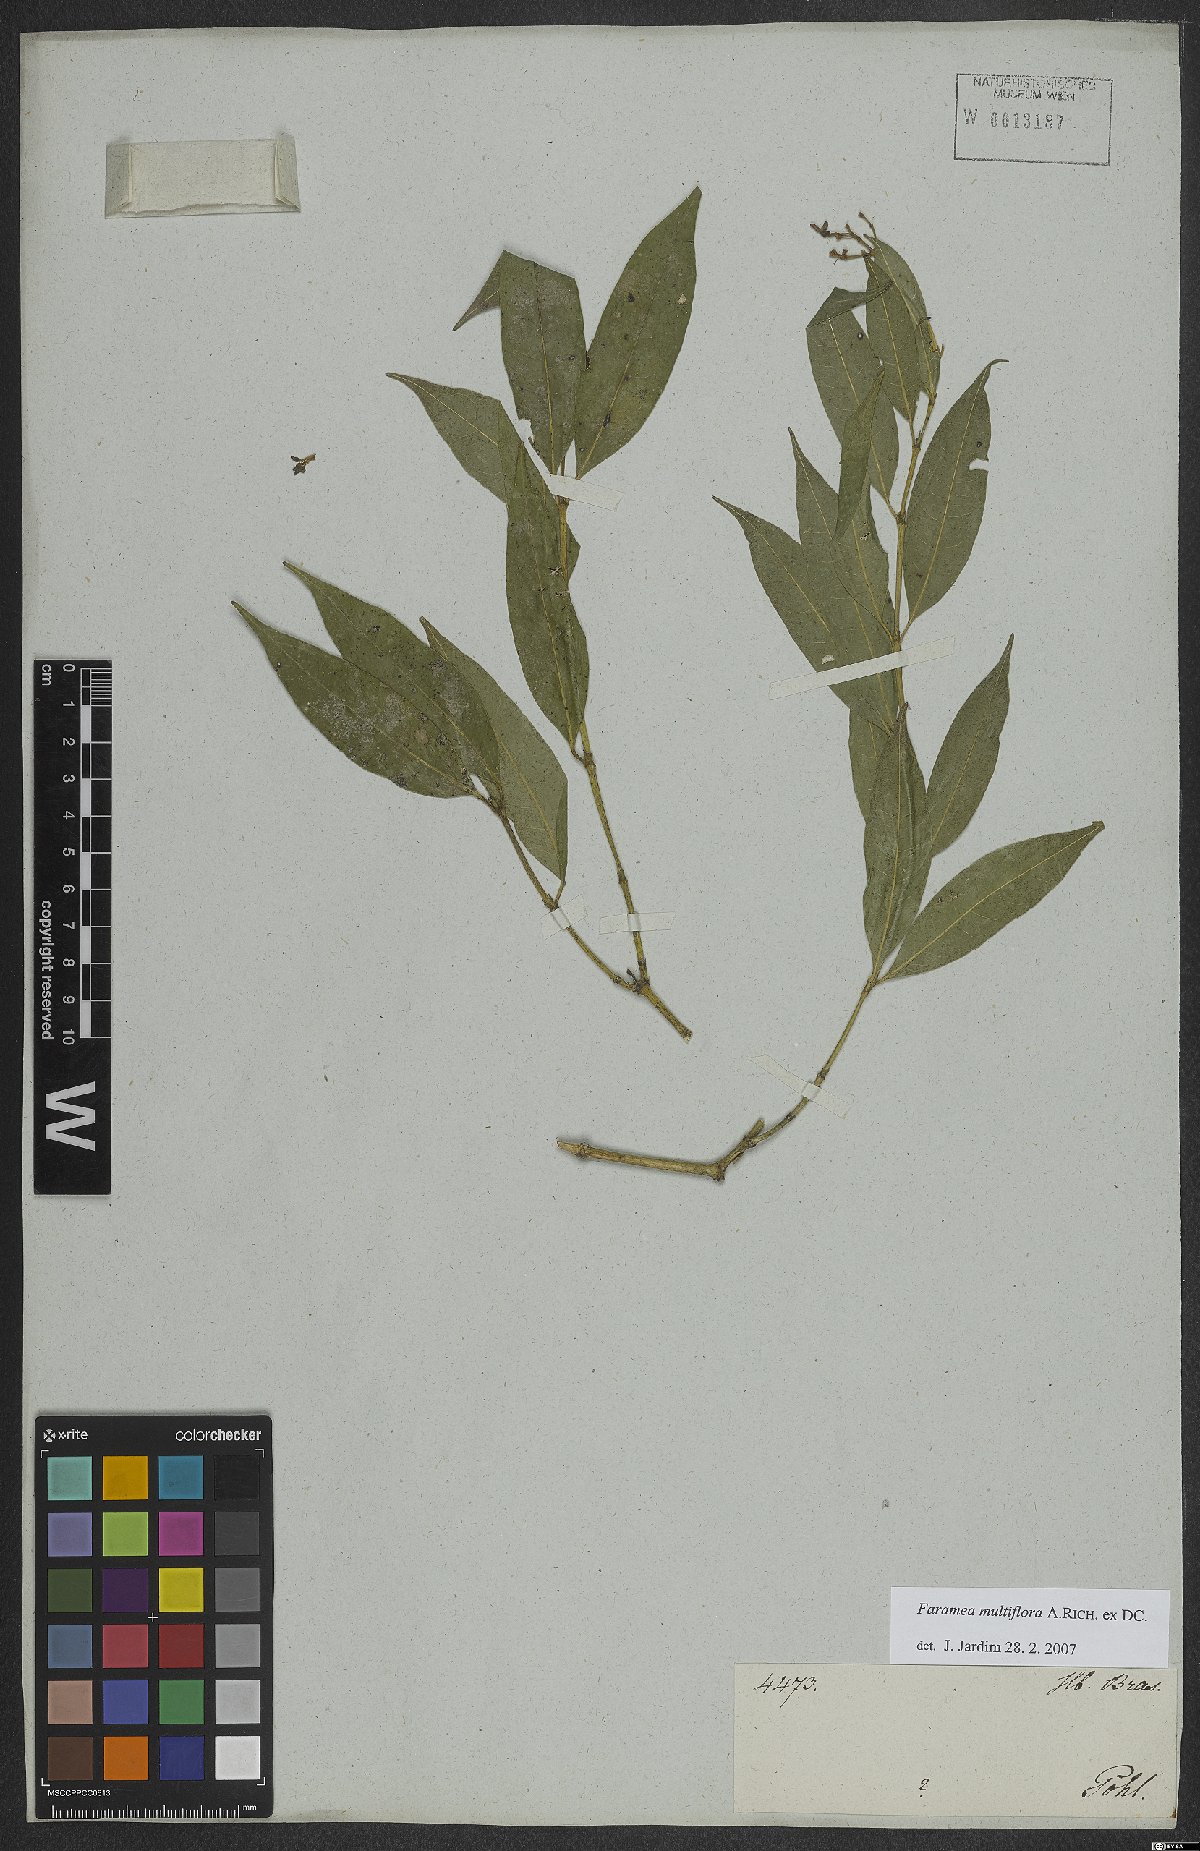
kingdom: Plantae
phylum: Tracheophyta
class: Magnoliopsida
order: Gentianales
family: Rubiaceae
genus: Faramea
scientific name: Faramea multiflora
